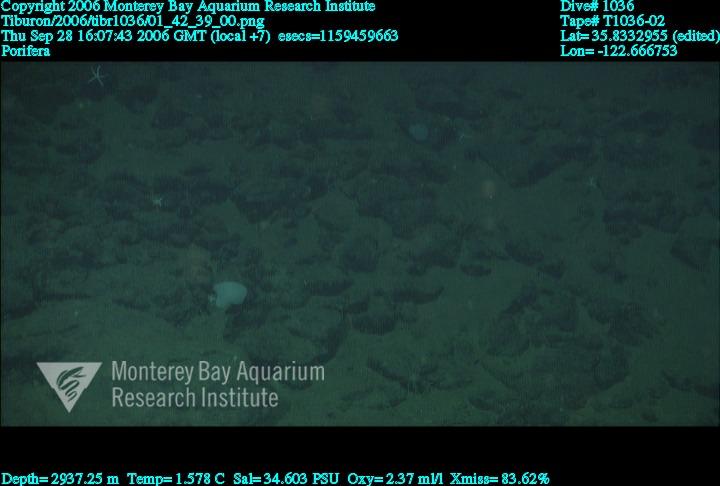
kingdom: Animalia
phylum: Porifera
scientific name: Porifera
